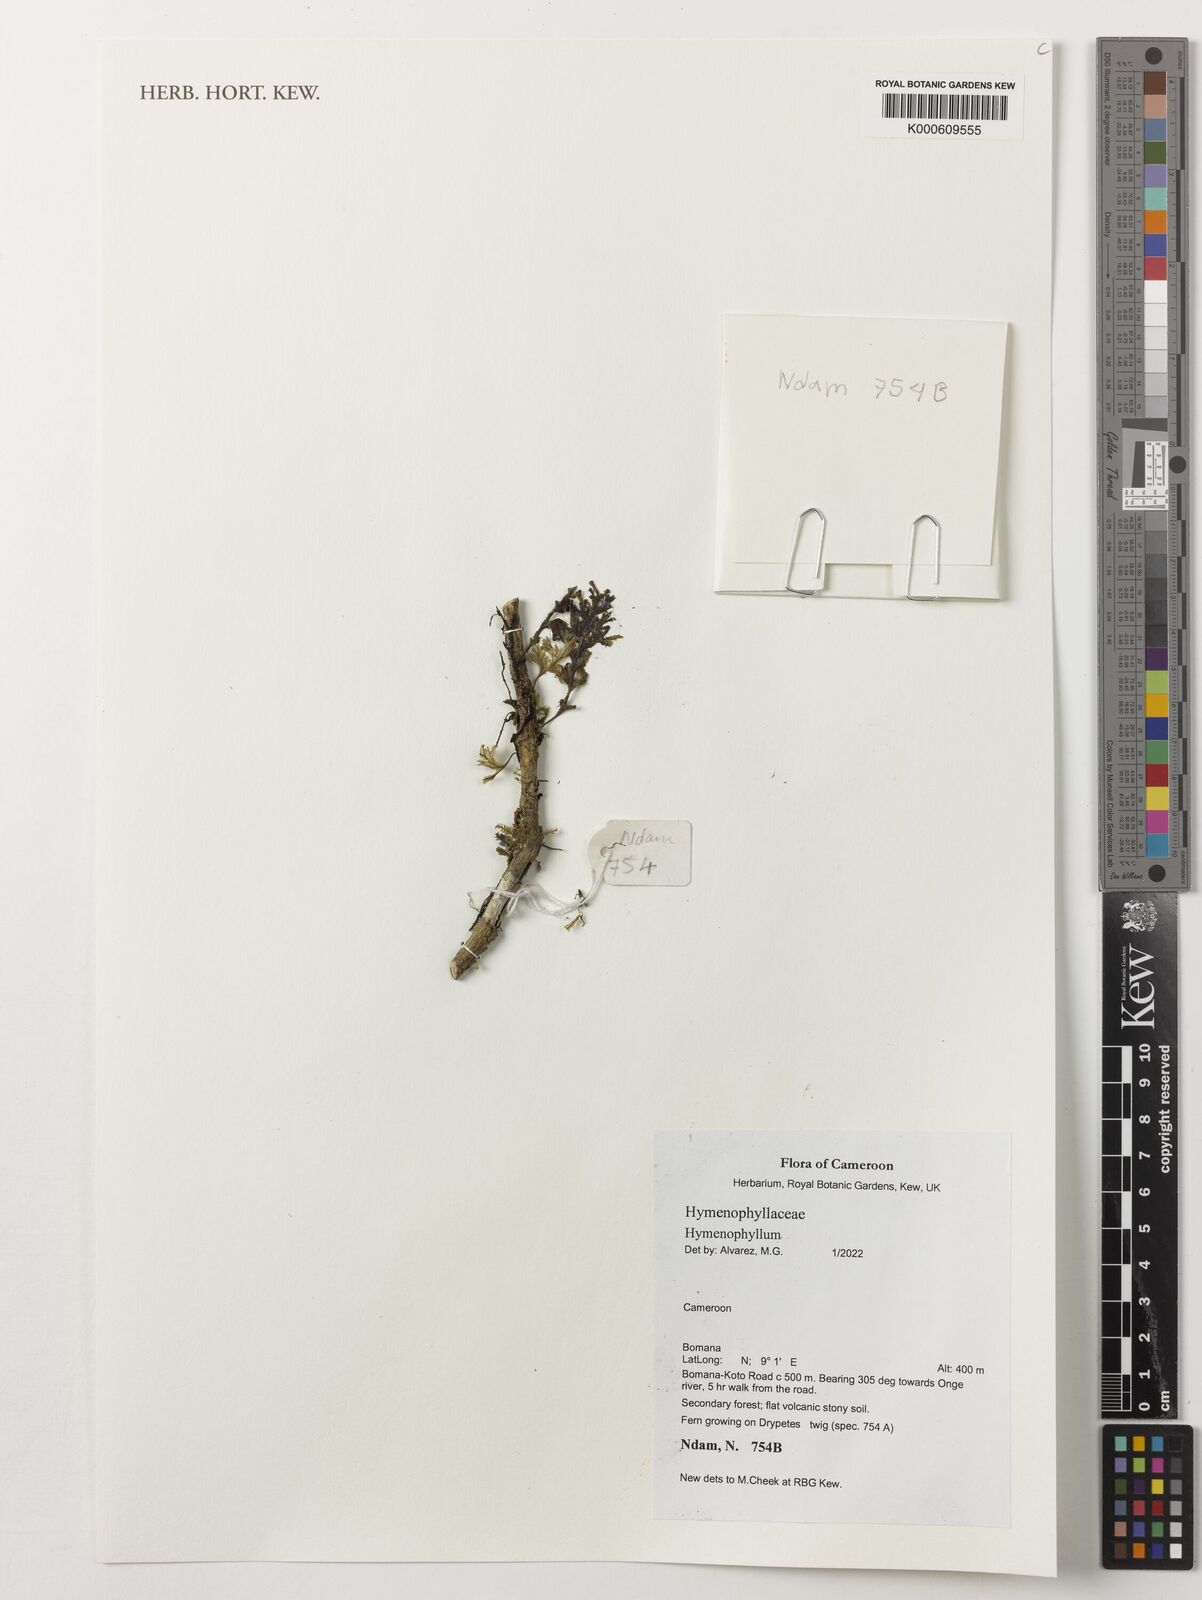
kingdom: Plantae
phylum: Tracheophyta
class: Polypodiopsida
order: Hymenophyllales
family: Hymenophyllaceae
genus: Hymenophyllum
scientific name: Hymenophyllum
